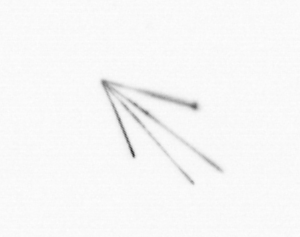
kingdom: Chromista
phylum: Myzozoa
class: Dinophyceae
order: Gonyaulacales
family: Ceratiaceae
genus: Ceratium
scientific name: Ceratium
